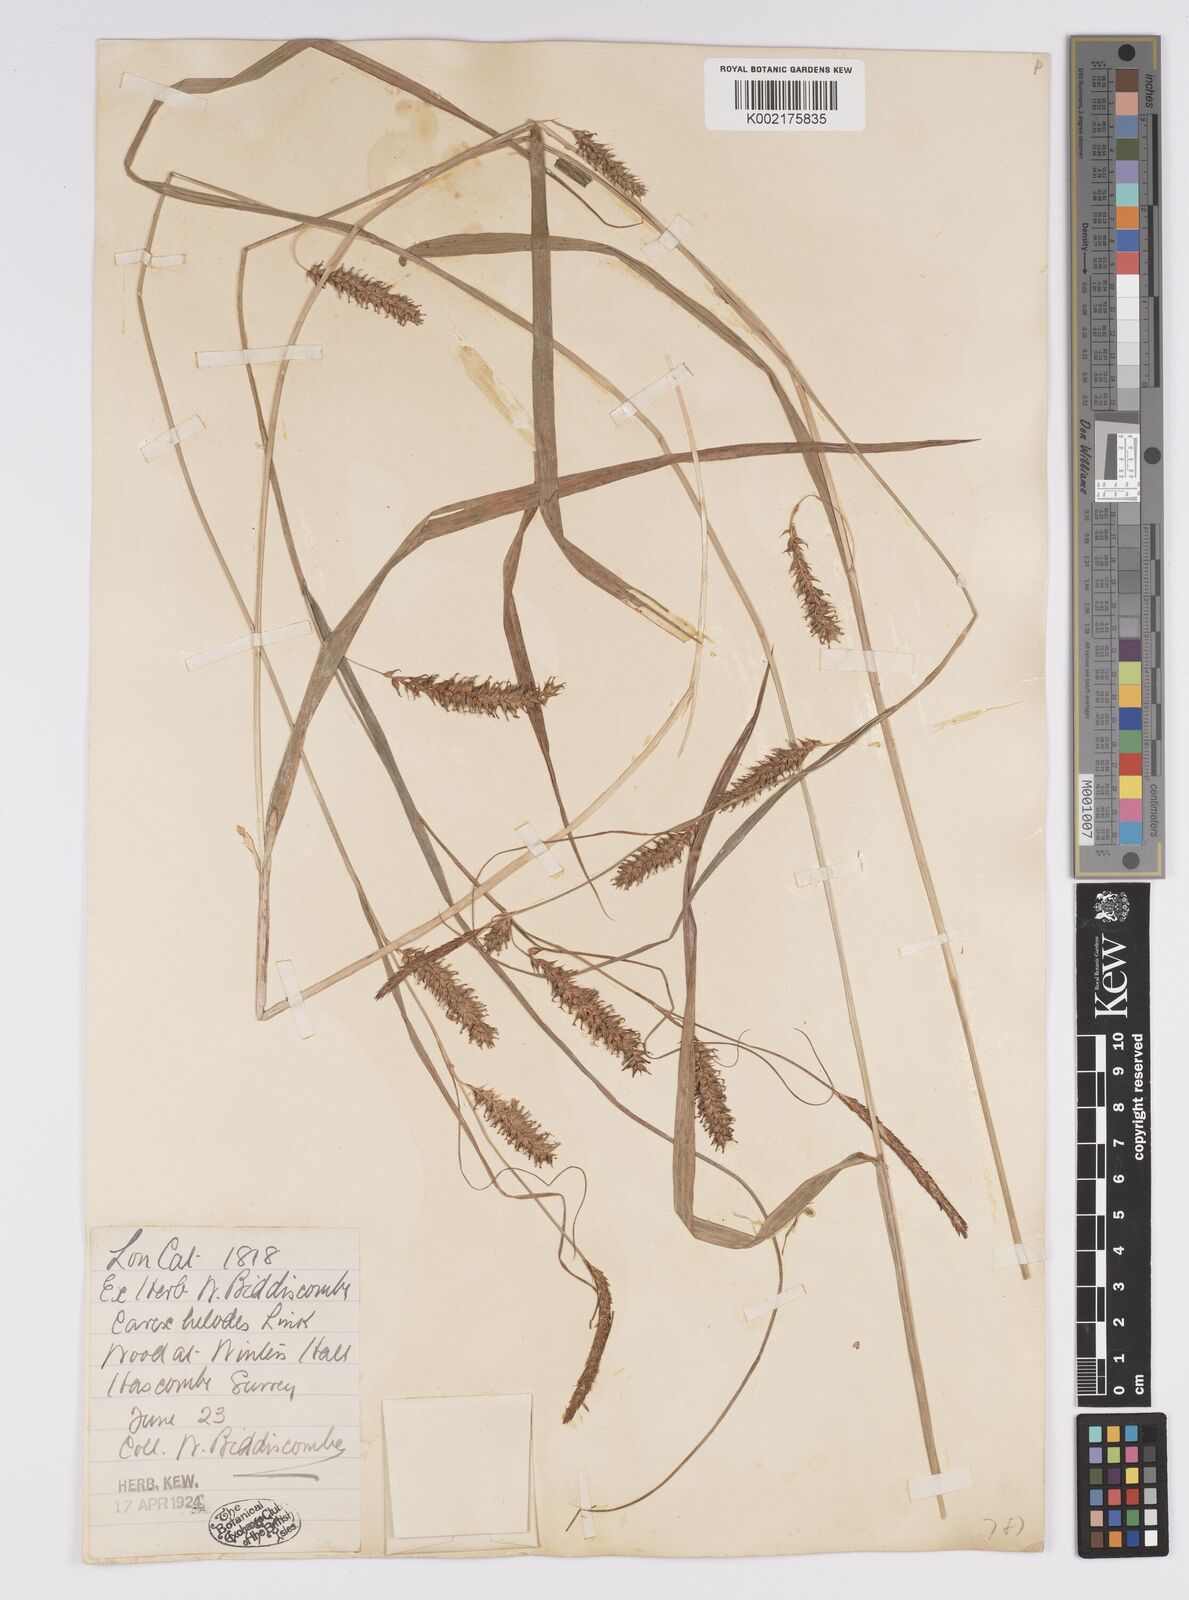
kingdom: Plantae
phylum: Tracheophyta
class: Liliopsida
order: Poales
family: Cyperaceae
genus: Carex
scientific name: Carex laevigata
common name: Smooth-stalked sedge
